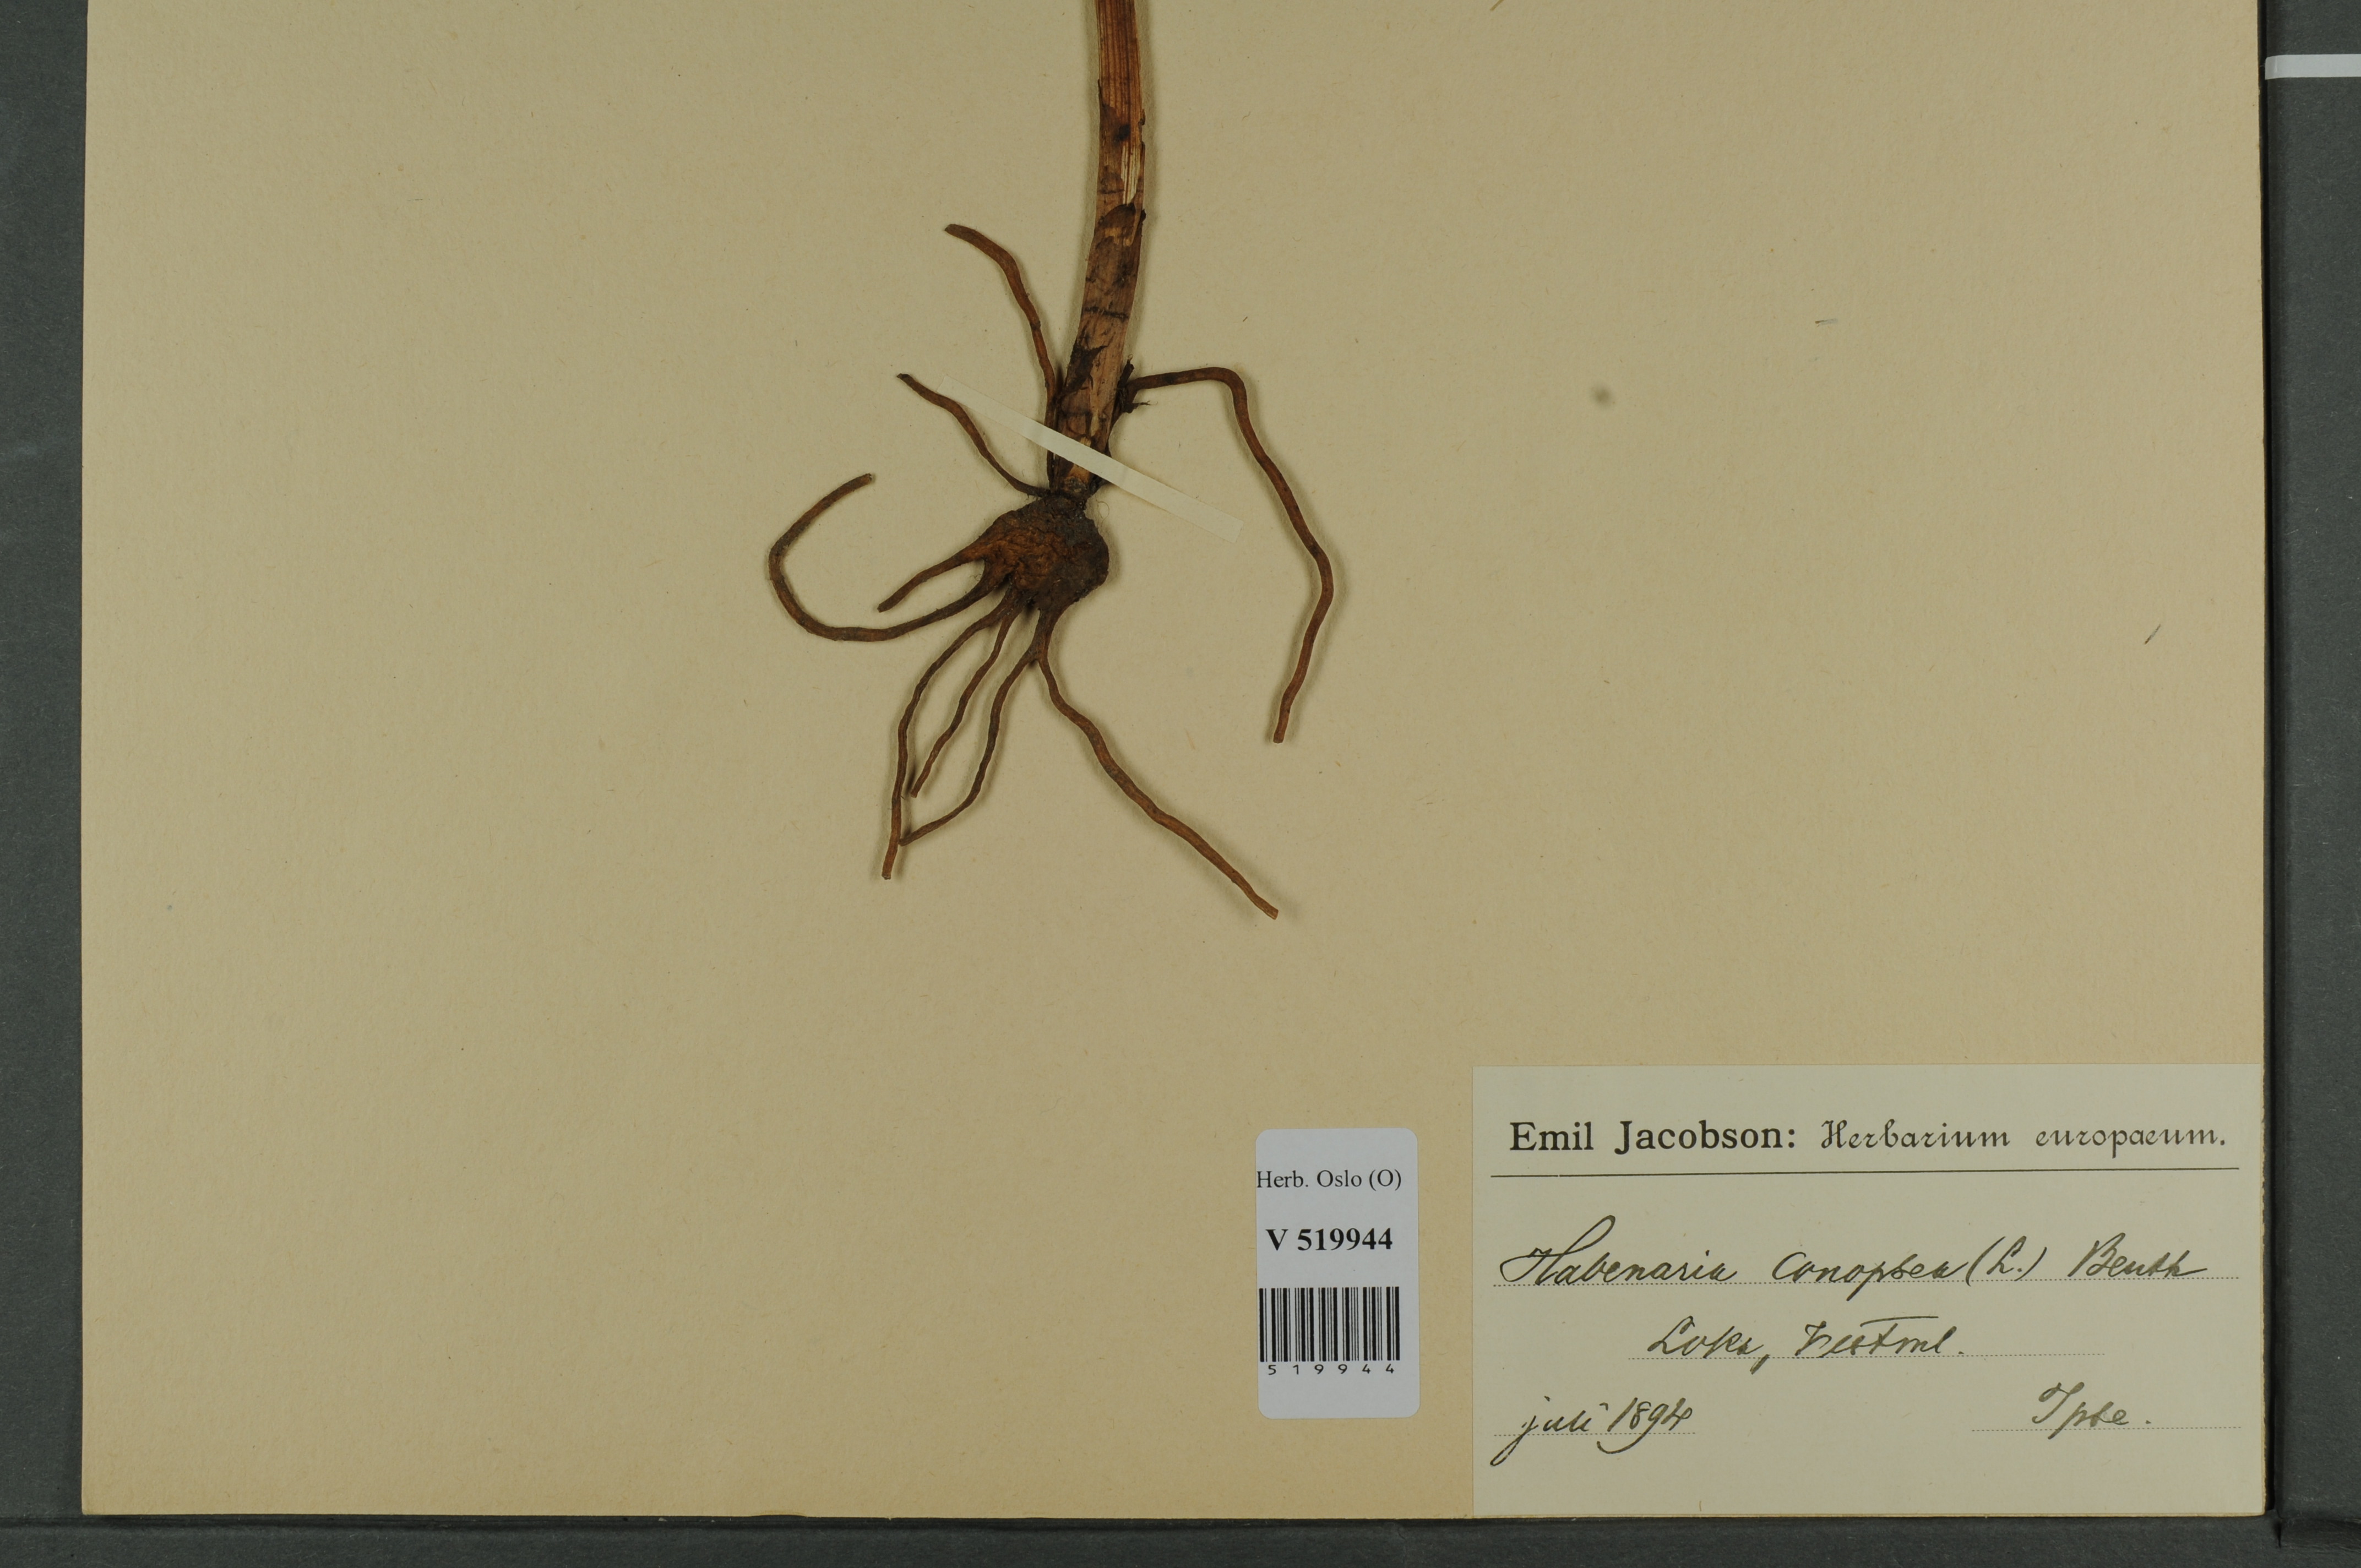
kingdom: Plantae
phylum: Tracheophyta
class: Liliopsida
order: Asparagales
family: Orchidaceae
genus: Gymnadenia
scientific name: Gymnadenia conopsea
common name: Fragrant orchid
